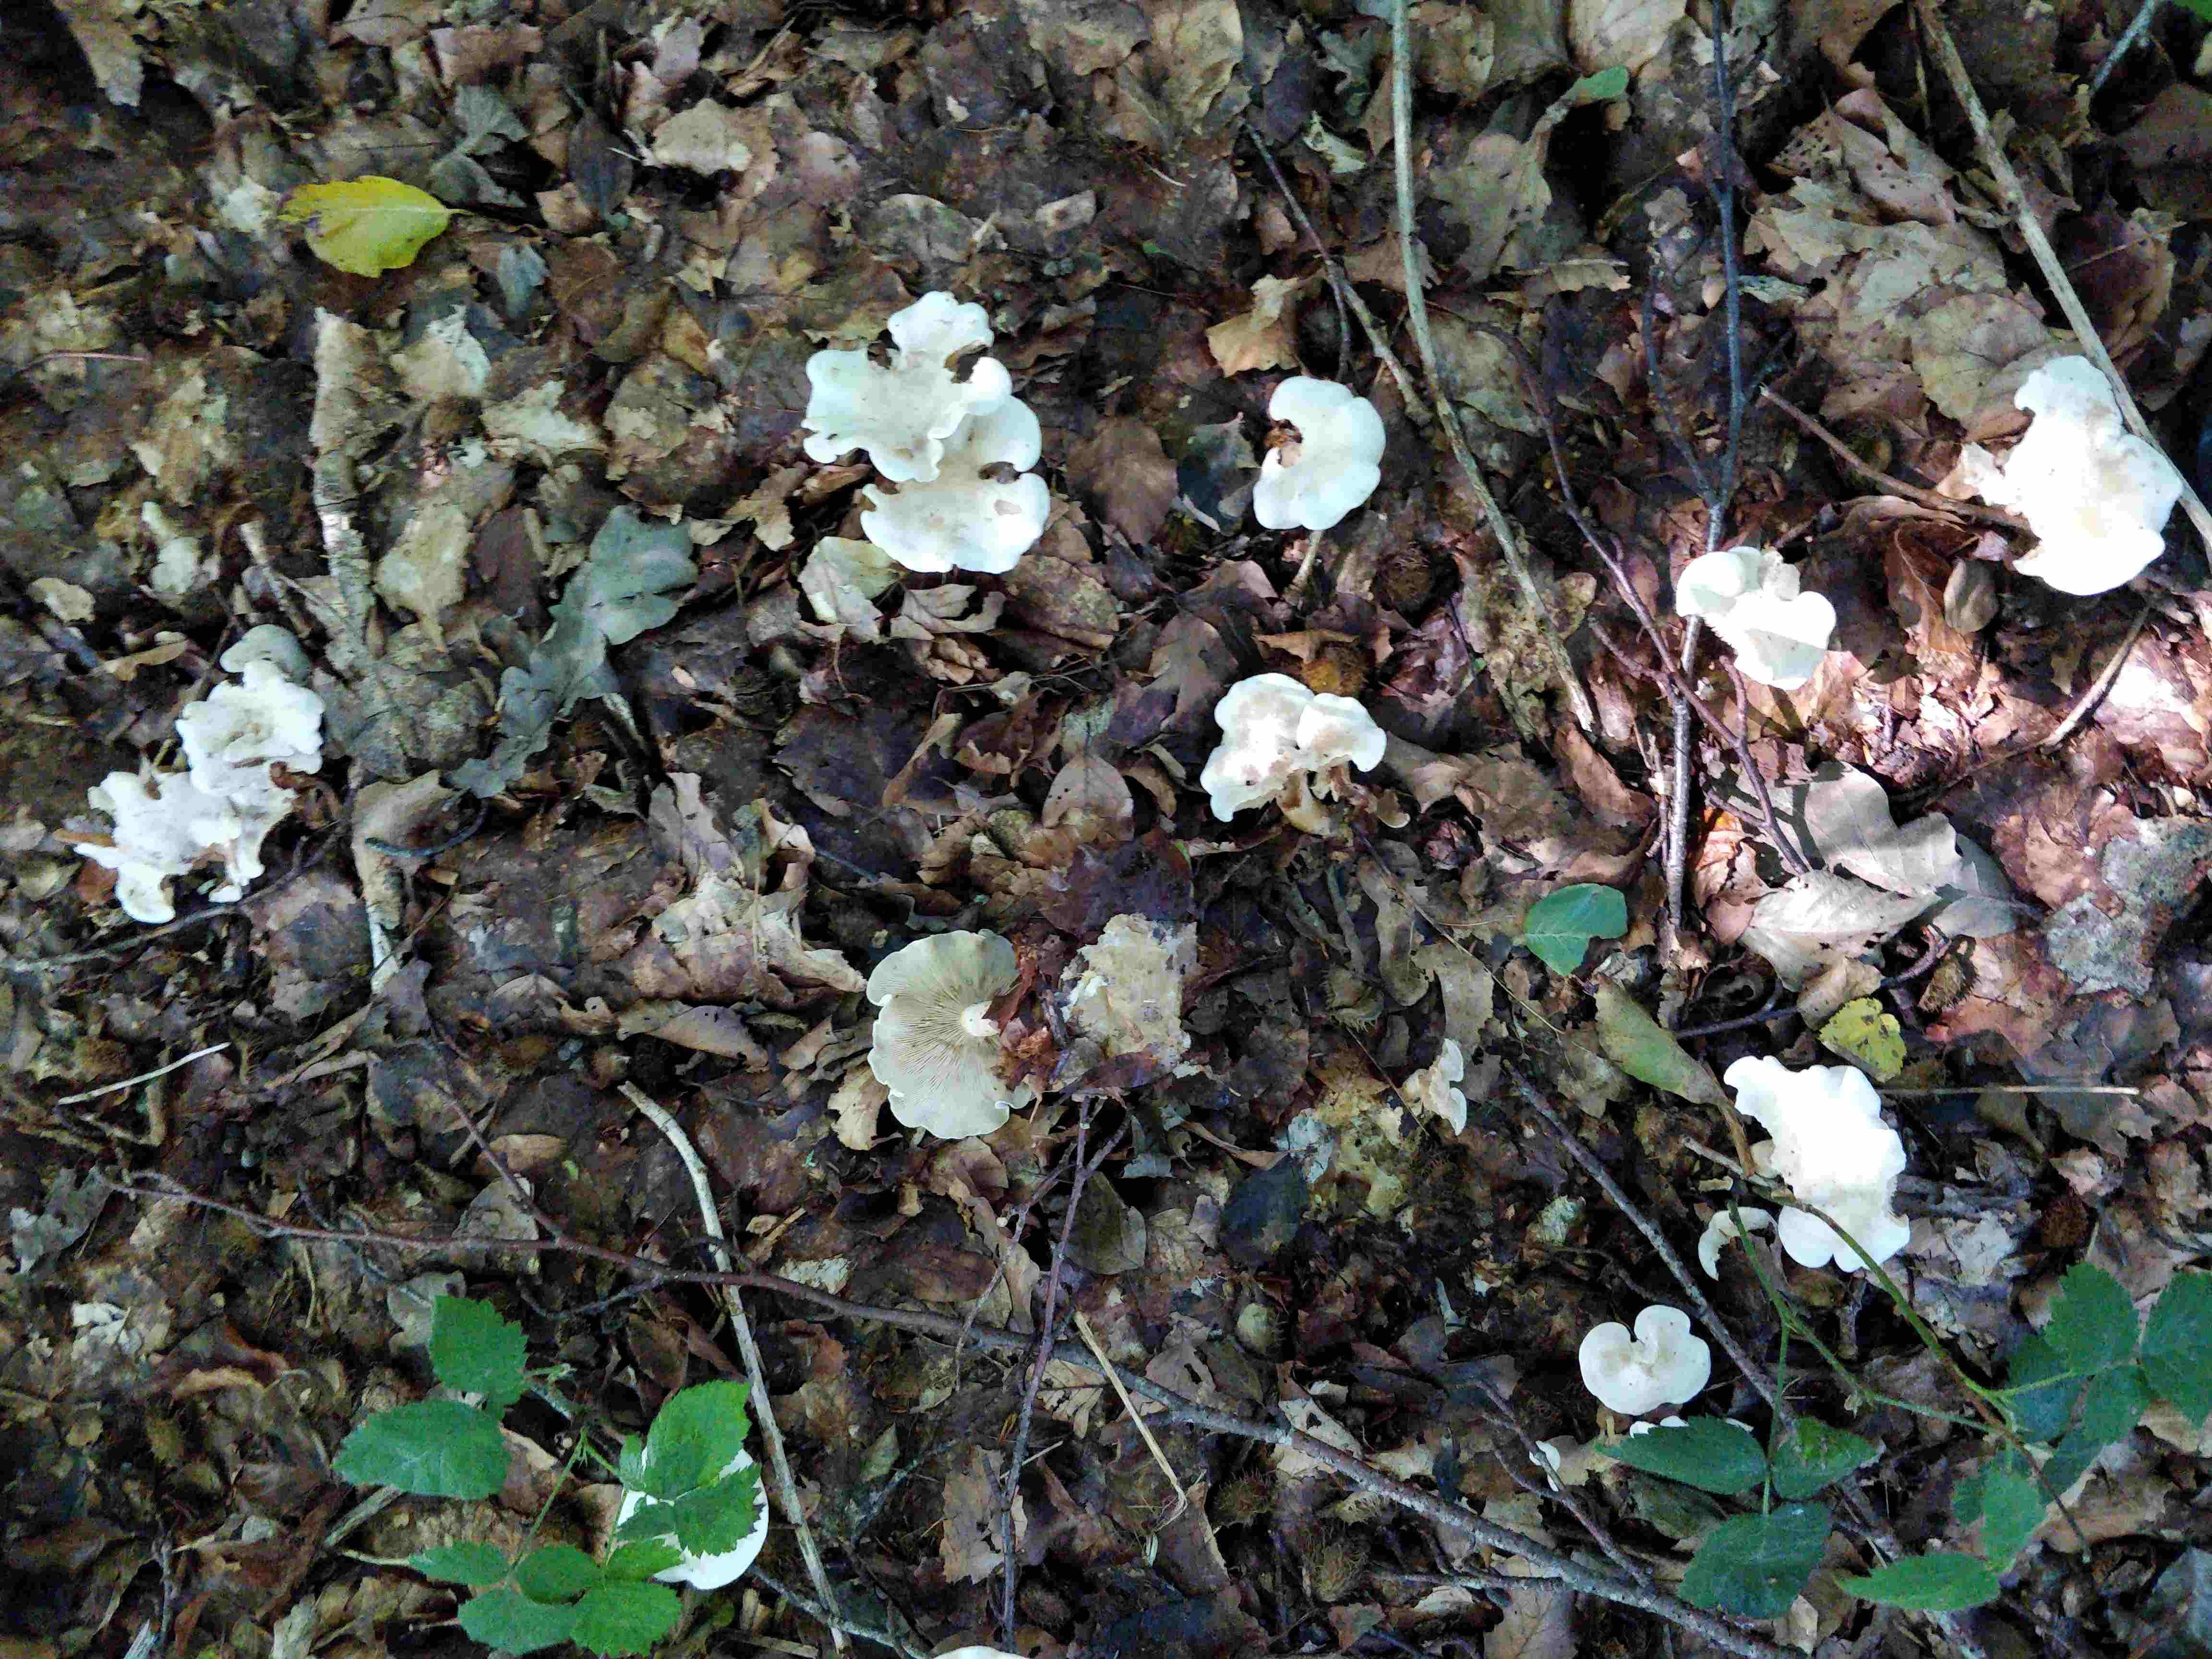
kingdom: Fungi
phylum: Basidiomycota
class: Agaricomycetes
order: Agaricales
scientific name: Agaricales
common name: champignonordenen
